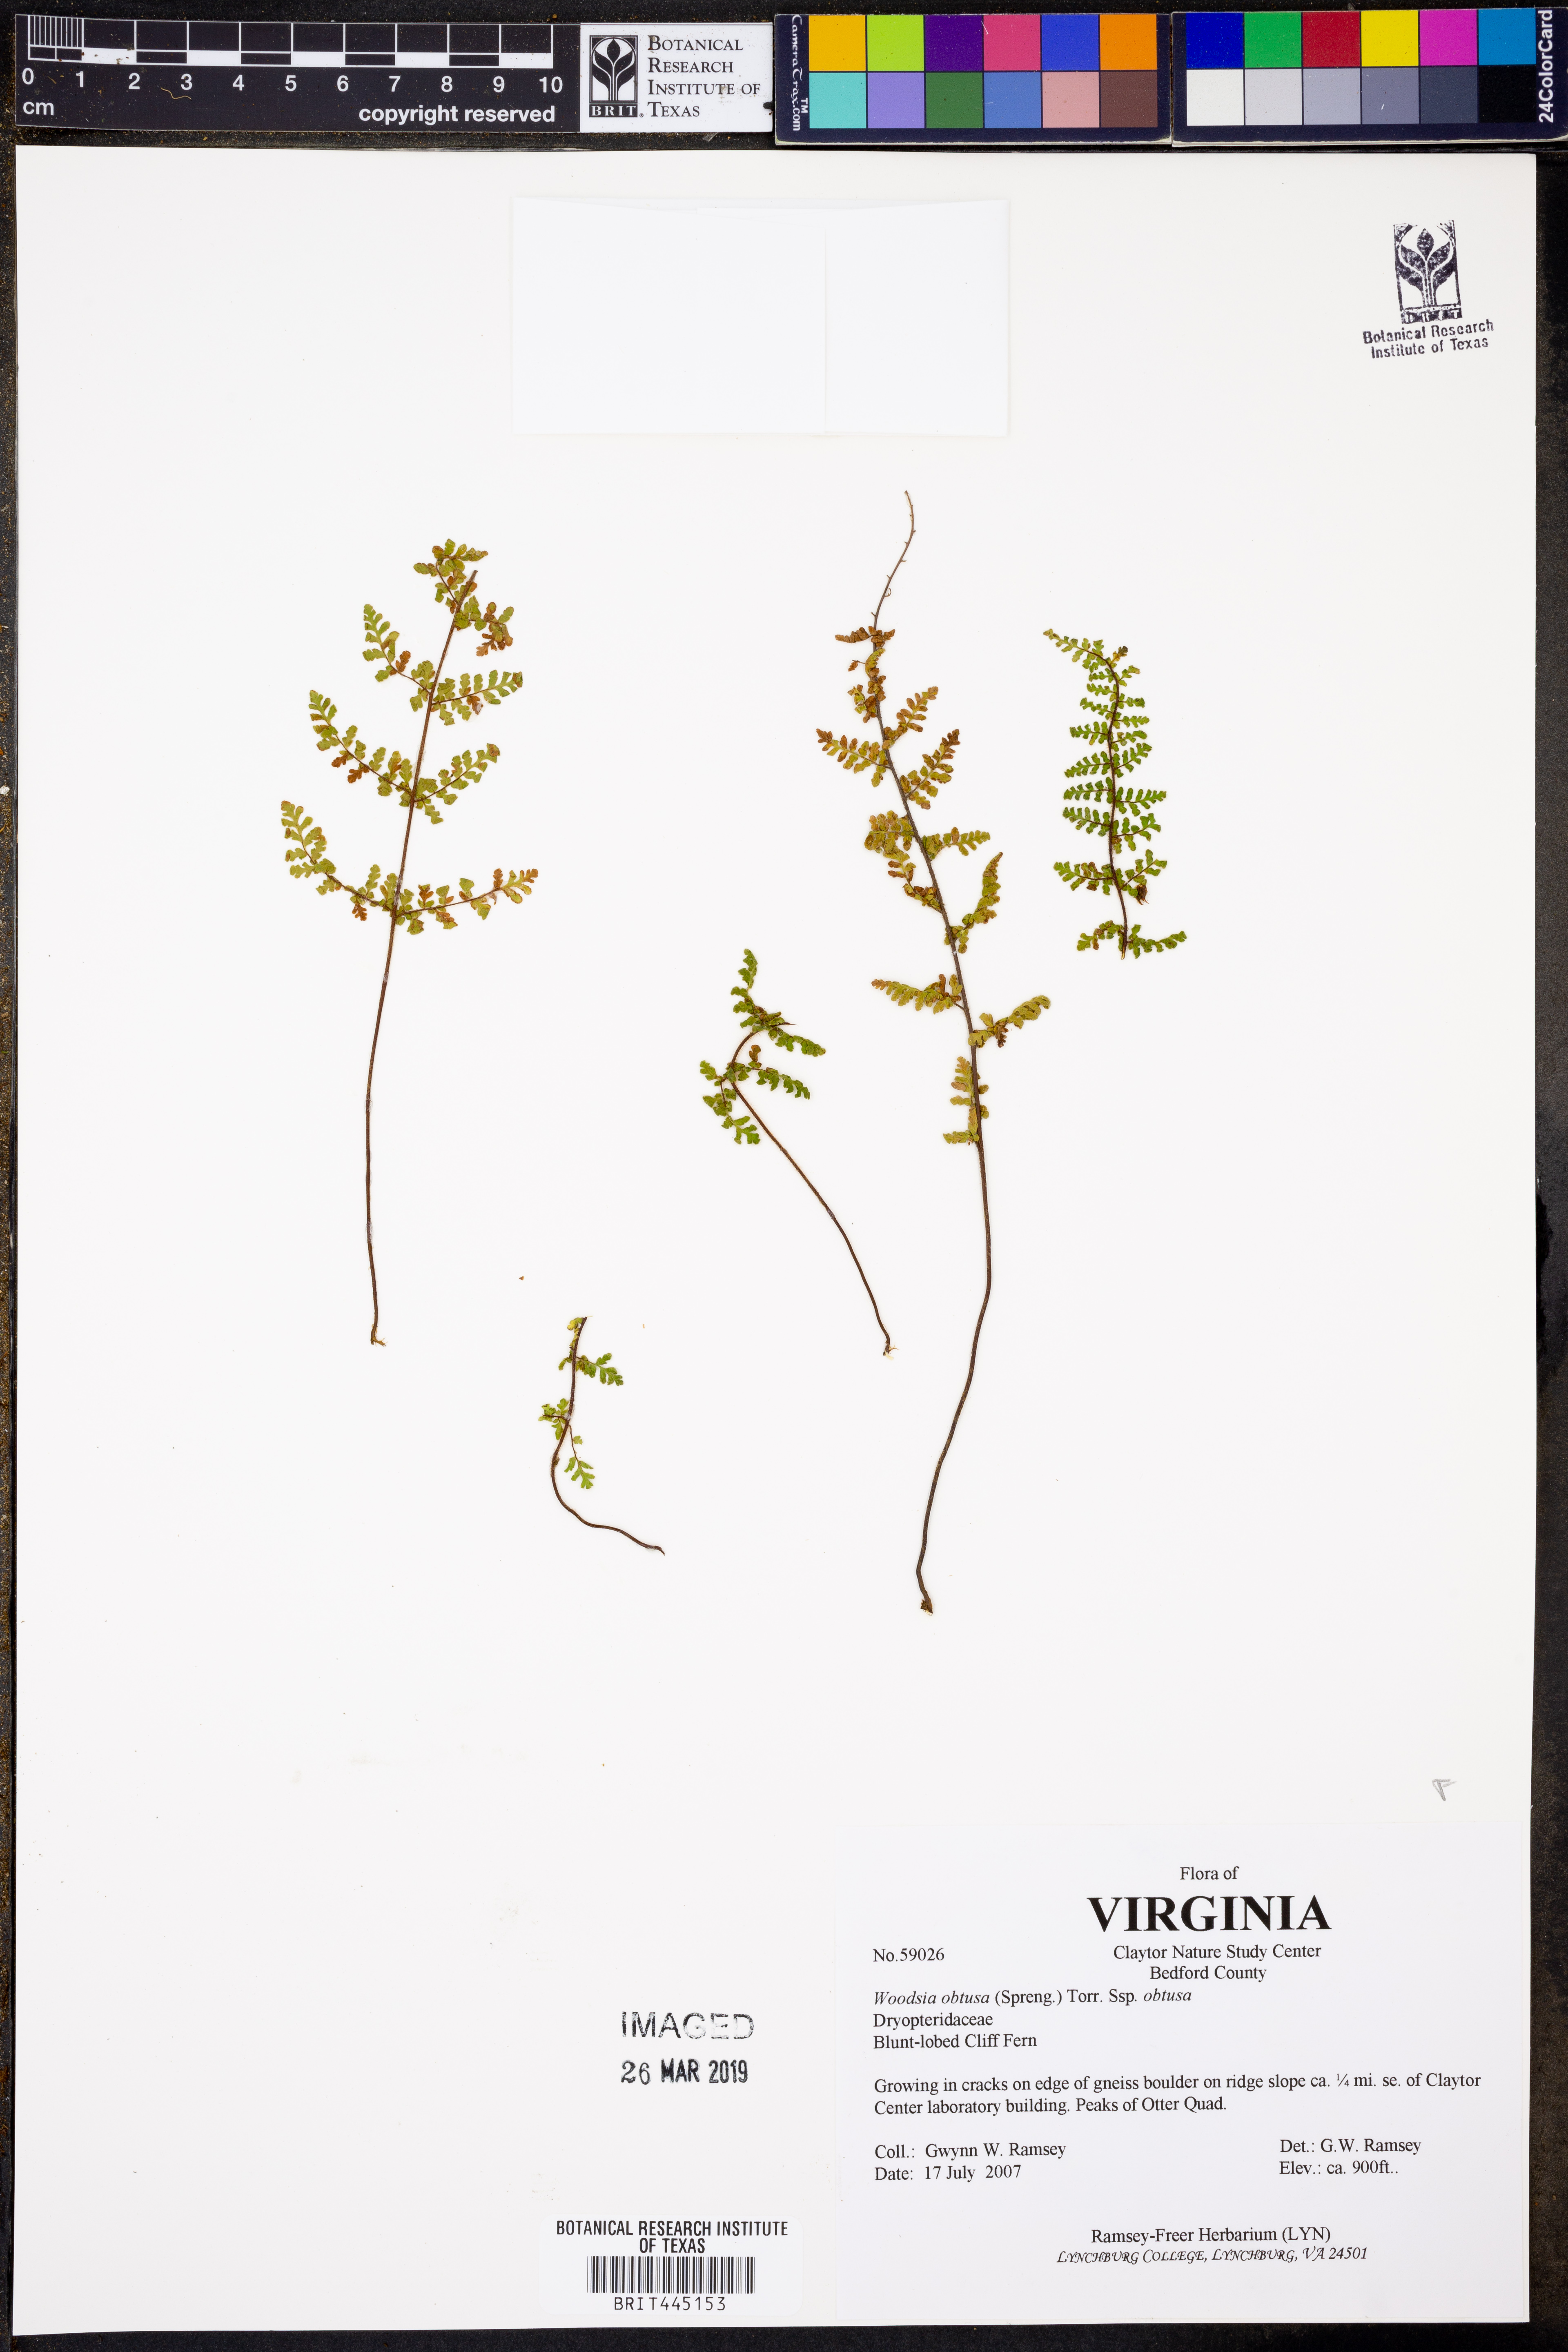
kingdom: Plantae
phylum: Tracheophyta
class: Polypodiopsida
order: Polypodiales
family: Woodsiaceae
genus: Physematium
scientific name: Physematium obtusum
